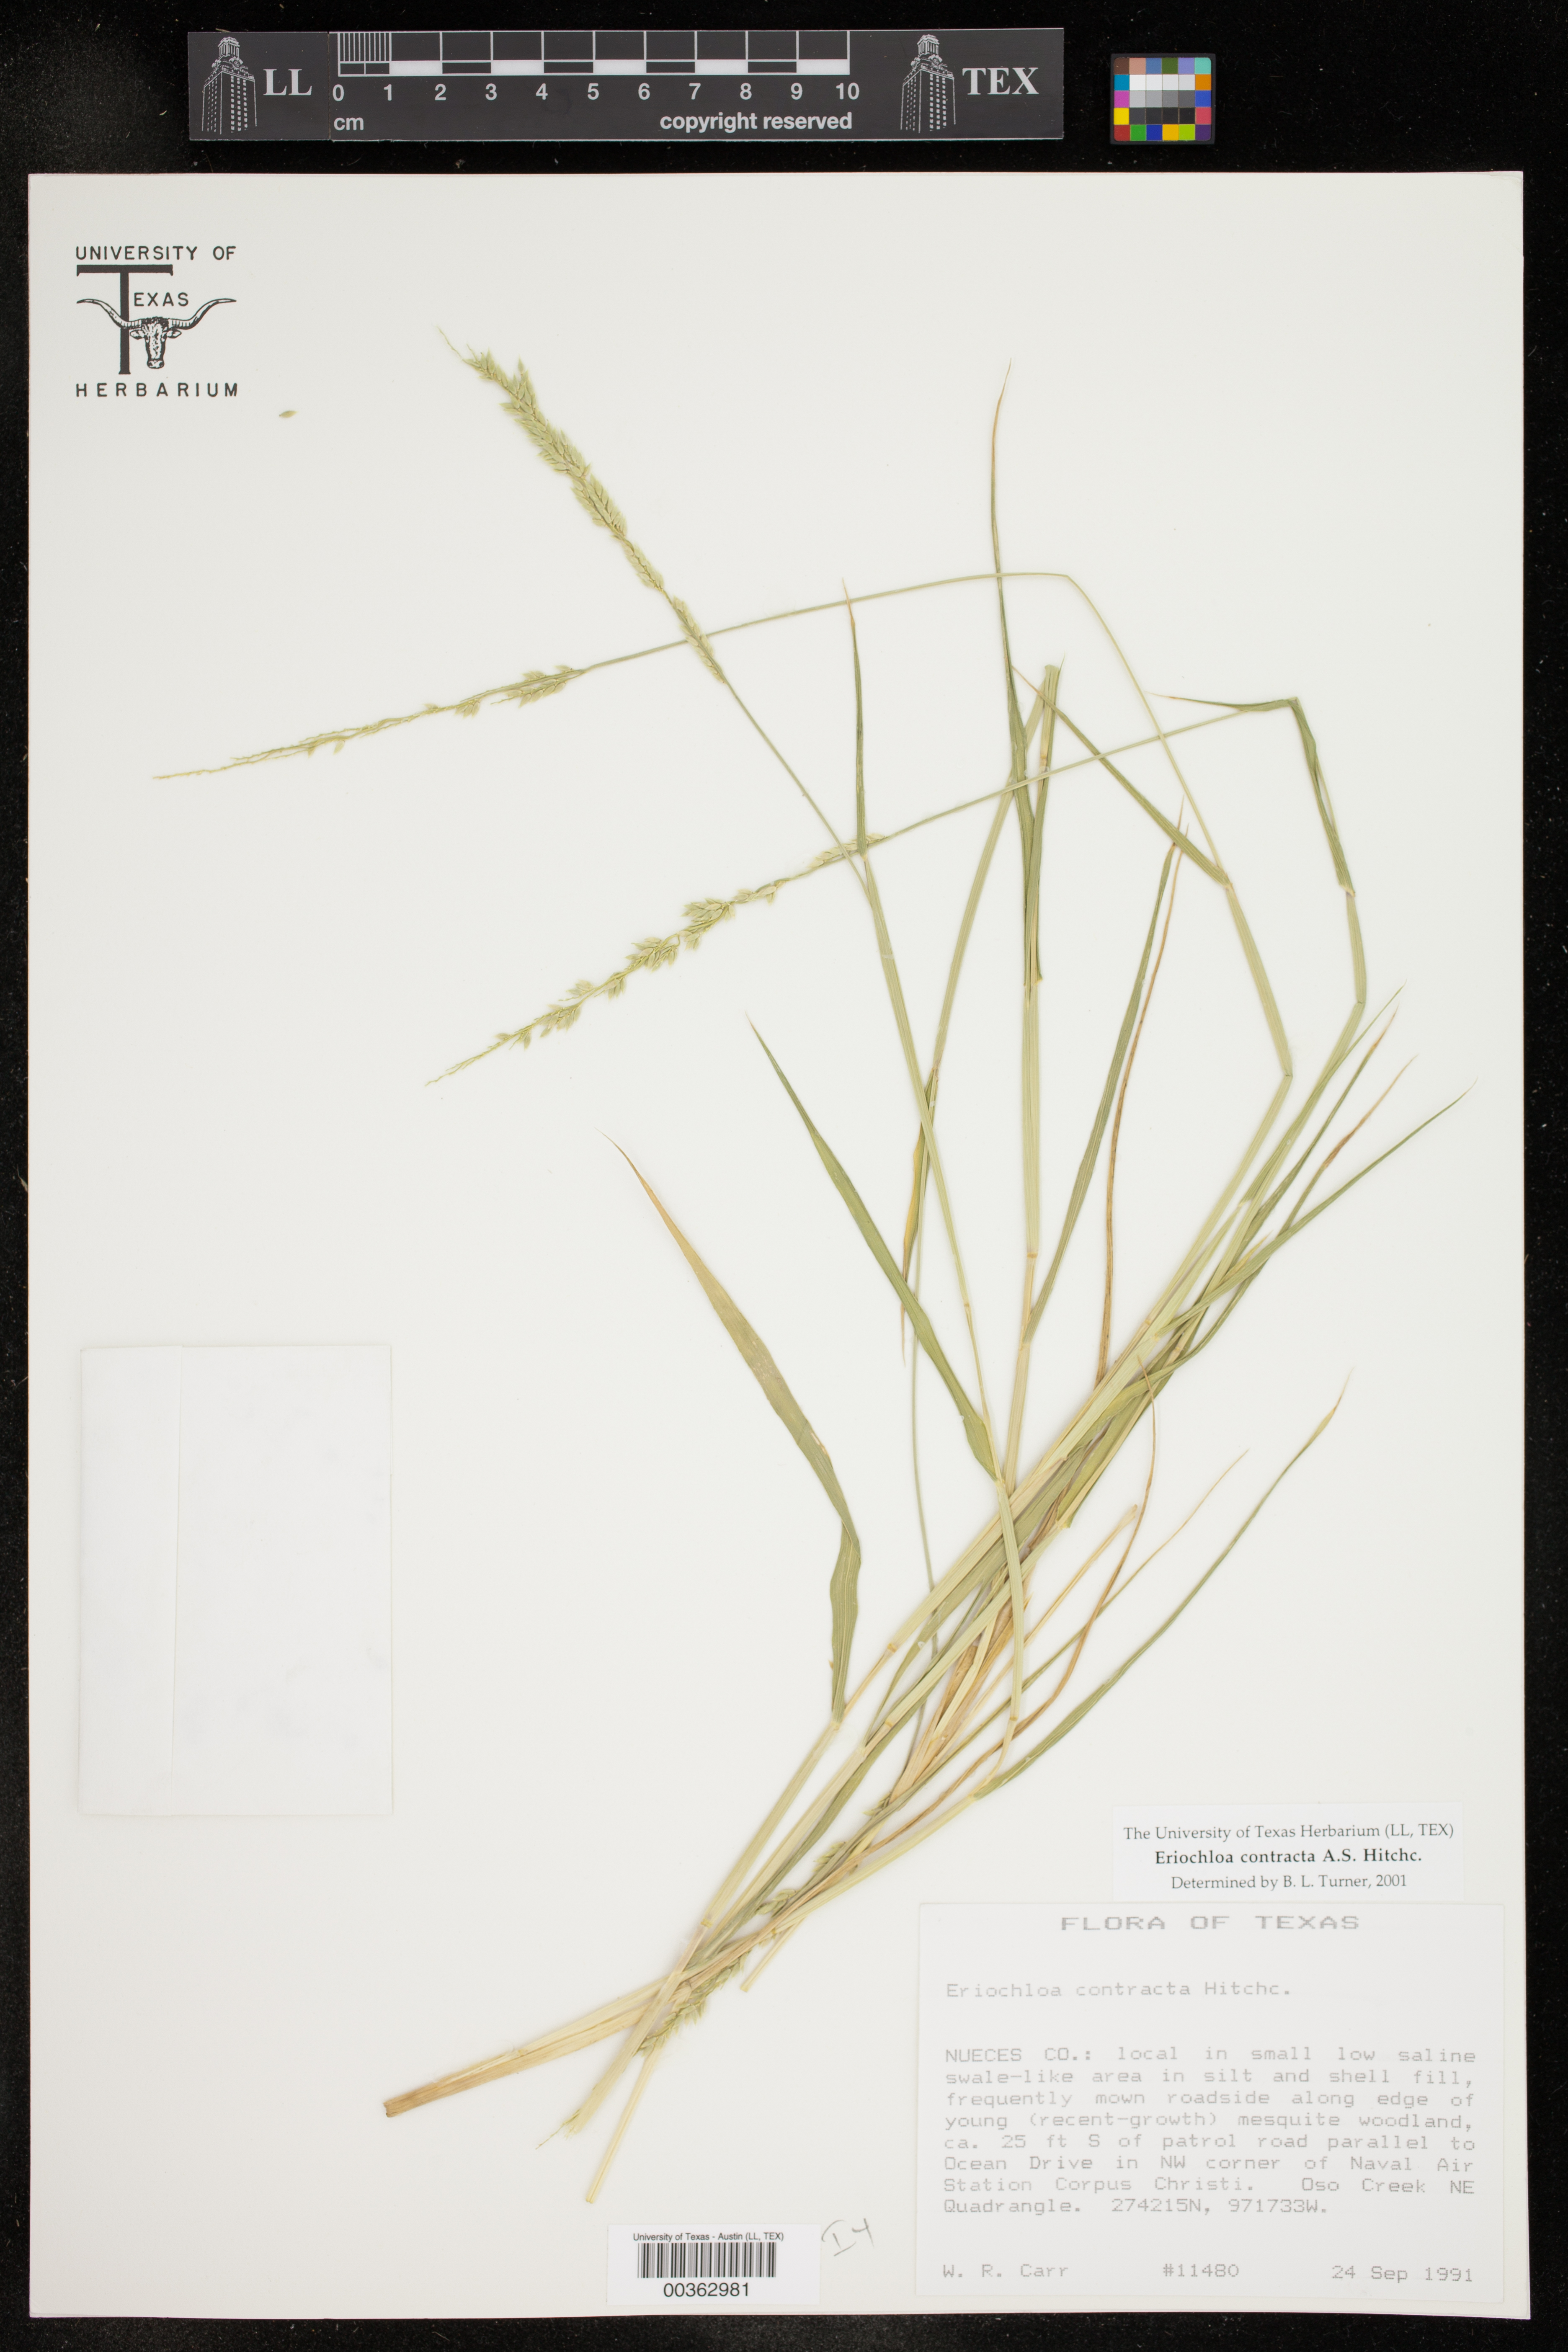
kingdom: Plantae
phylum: Tracheophyta
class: Liliopsida
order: Poales
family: Poaceae
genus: Eriochloa
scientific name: Eriochloa contracta
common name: Prairie cup grass
